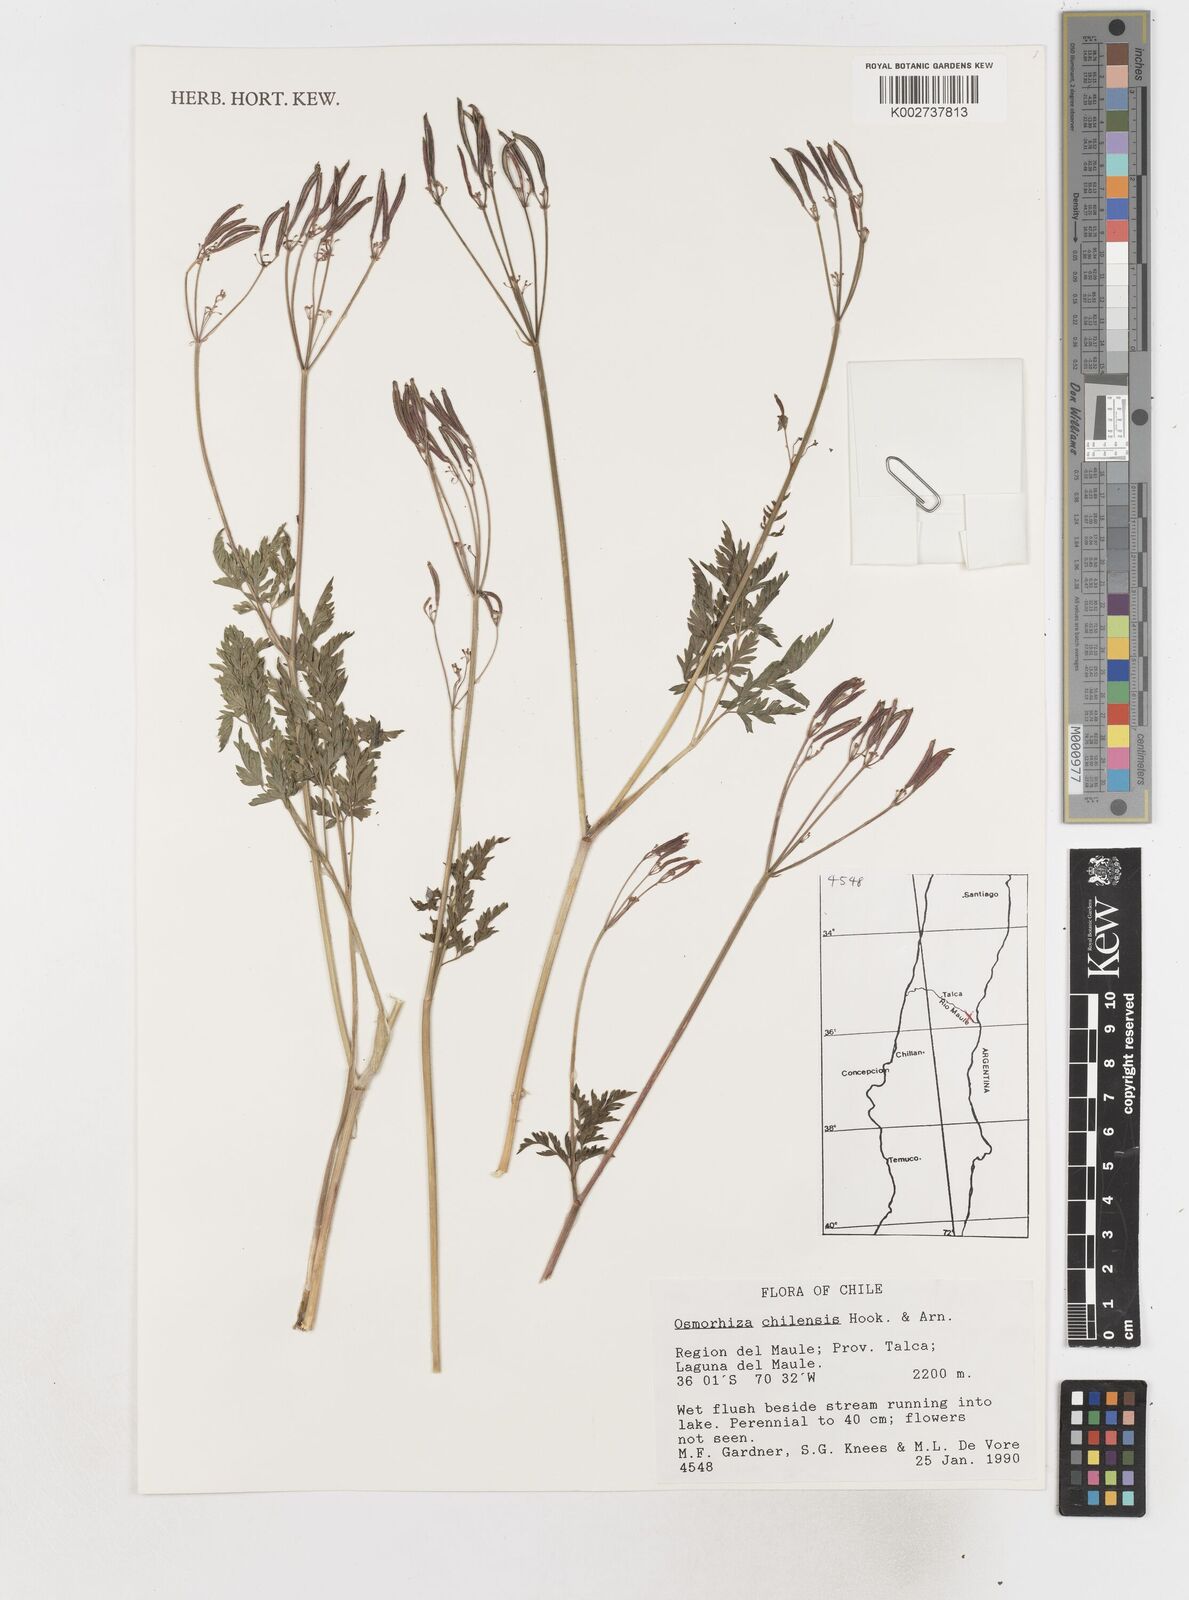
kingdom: Plantae
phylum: Tracheophyta
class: Magnoliopsida
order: Apiales
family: Apiaceae
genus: Osmorhiza
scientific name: Osmorhiza berteroi
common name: Mountain sweet cicely
